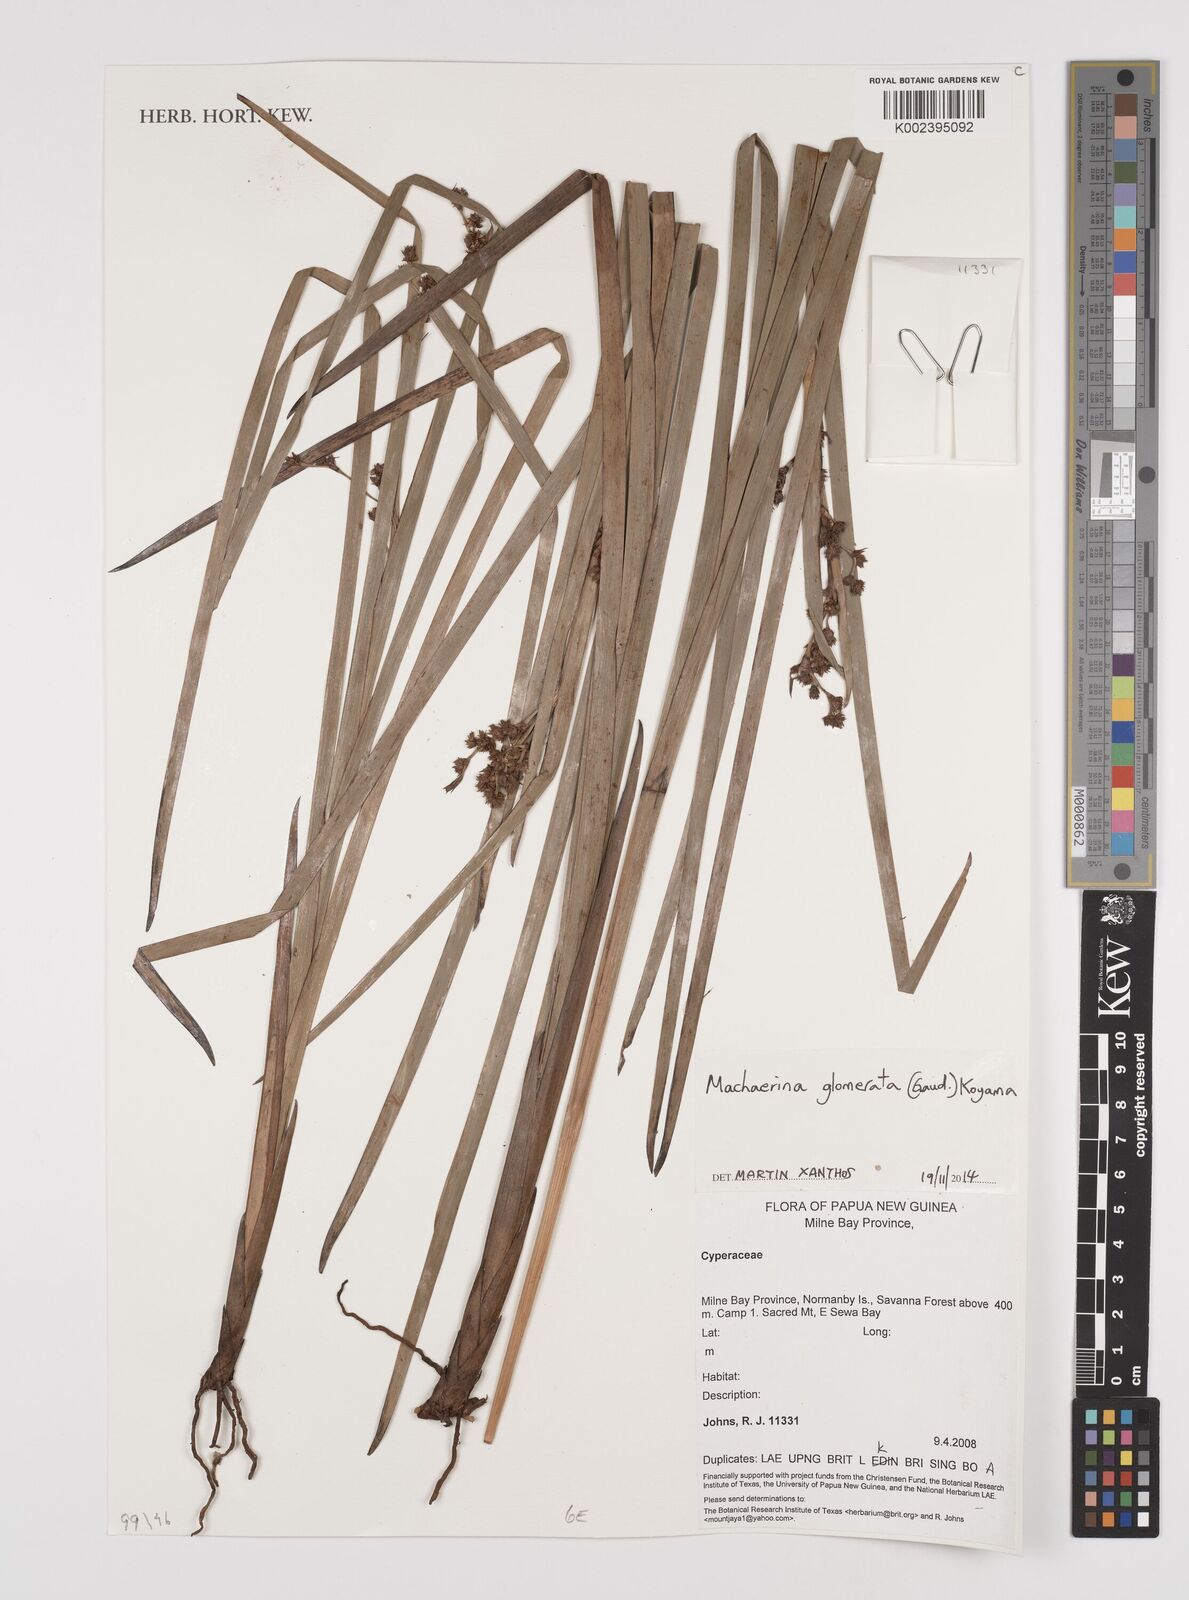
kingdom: Plantae
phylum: Tracheophyta
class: Liliopsida
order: Poales
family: Cyperaceae
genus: Machaerina
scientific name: Machaerina glomerata
